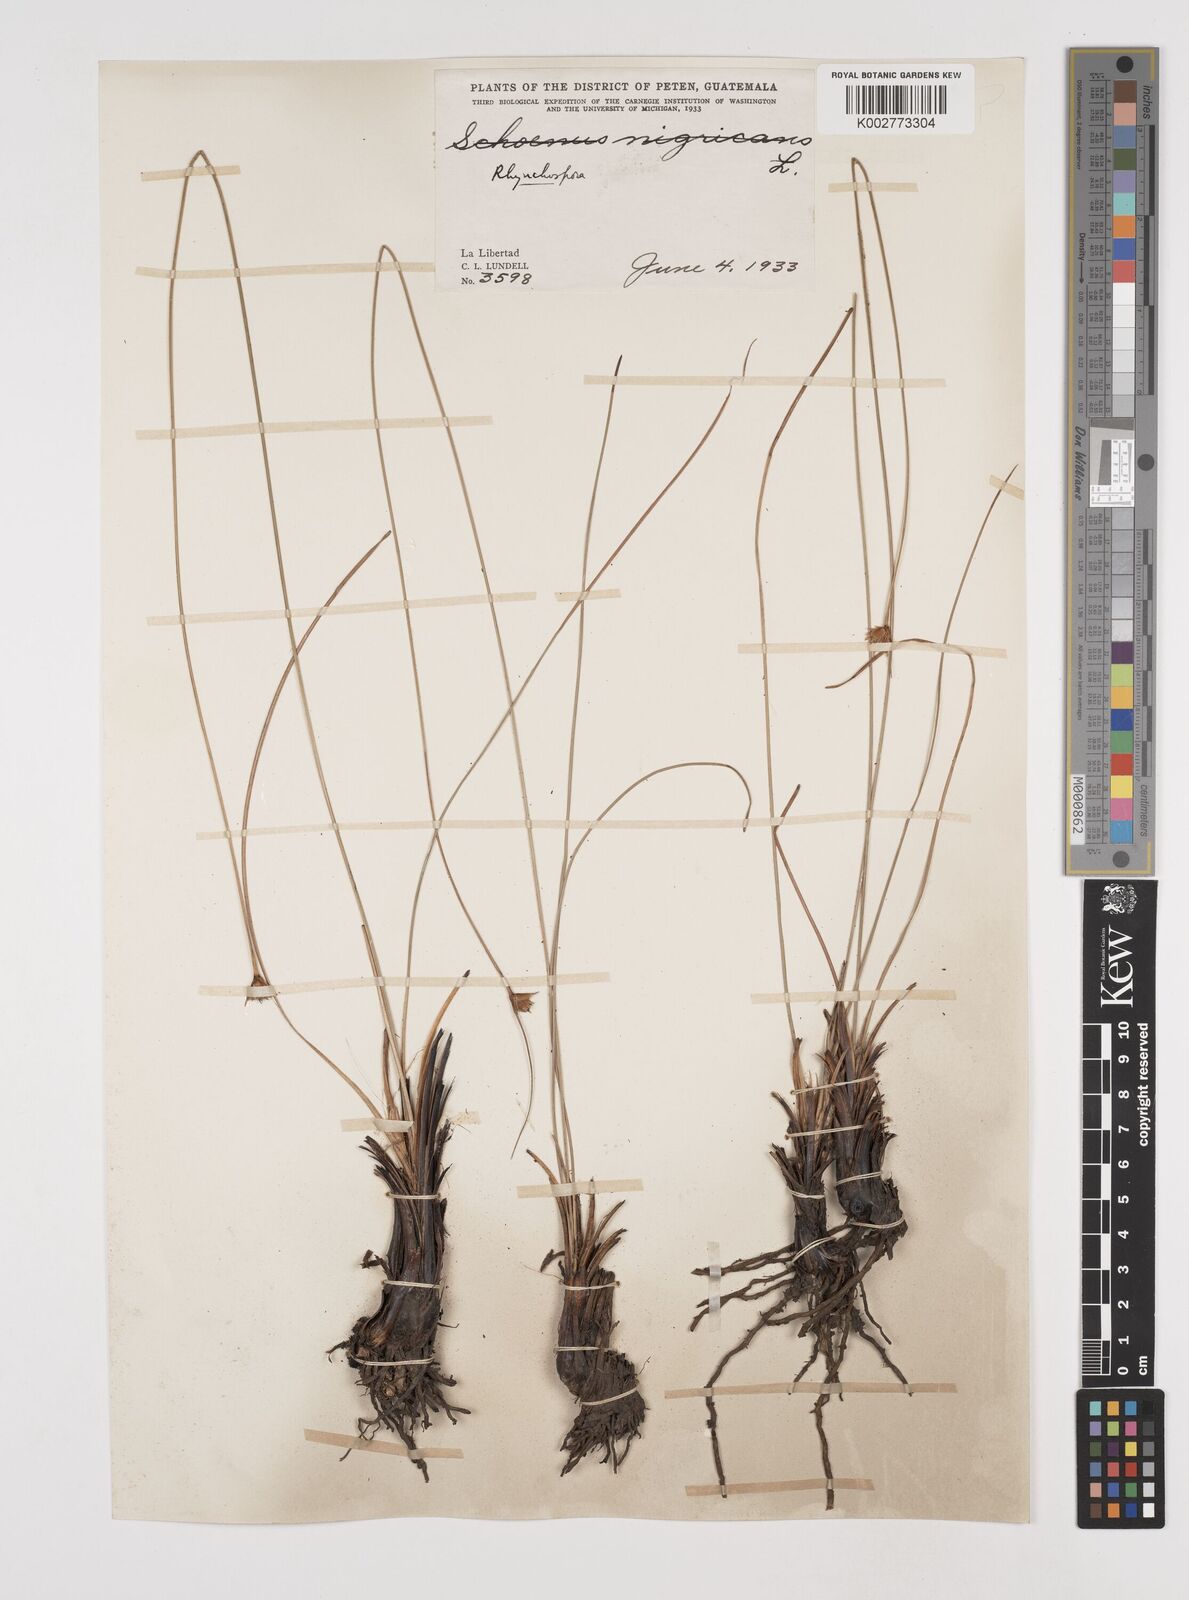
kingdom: Plantae
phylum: Tracheophyta
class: Liliopsida
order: Poales
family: Cyperaceae
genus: Rhynchospora
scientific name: Rhynchospora globosa
